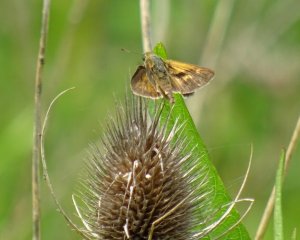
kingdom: Animalia
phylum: Arthropoda
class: Insecta
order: Lepidoptera
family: Hesperiidae
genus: Polites
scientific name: Polites
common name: Long Dash Skipper
